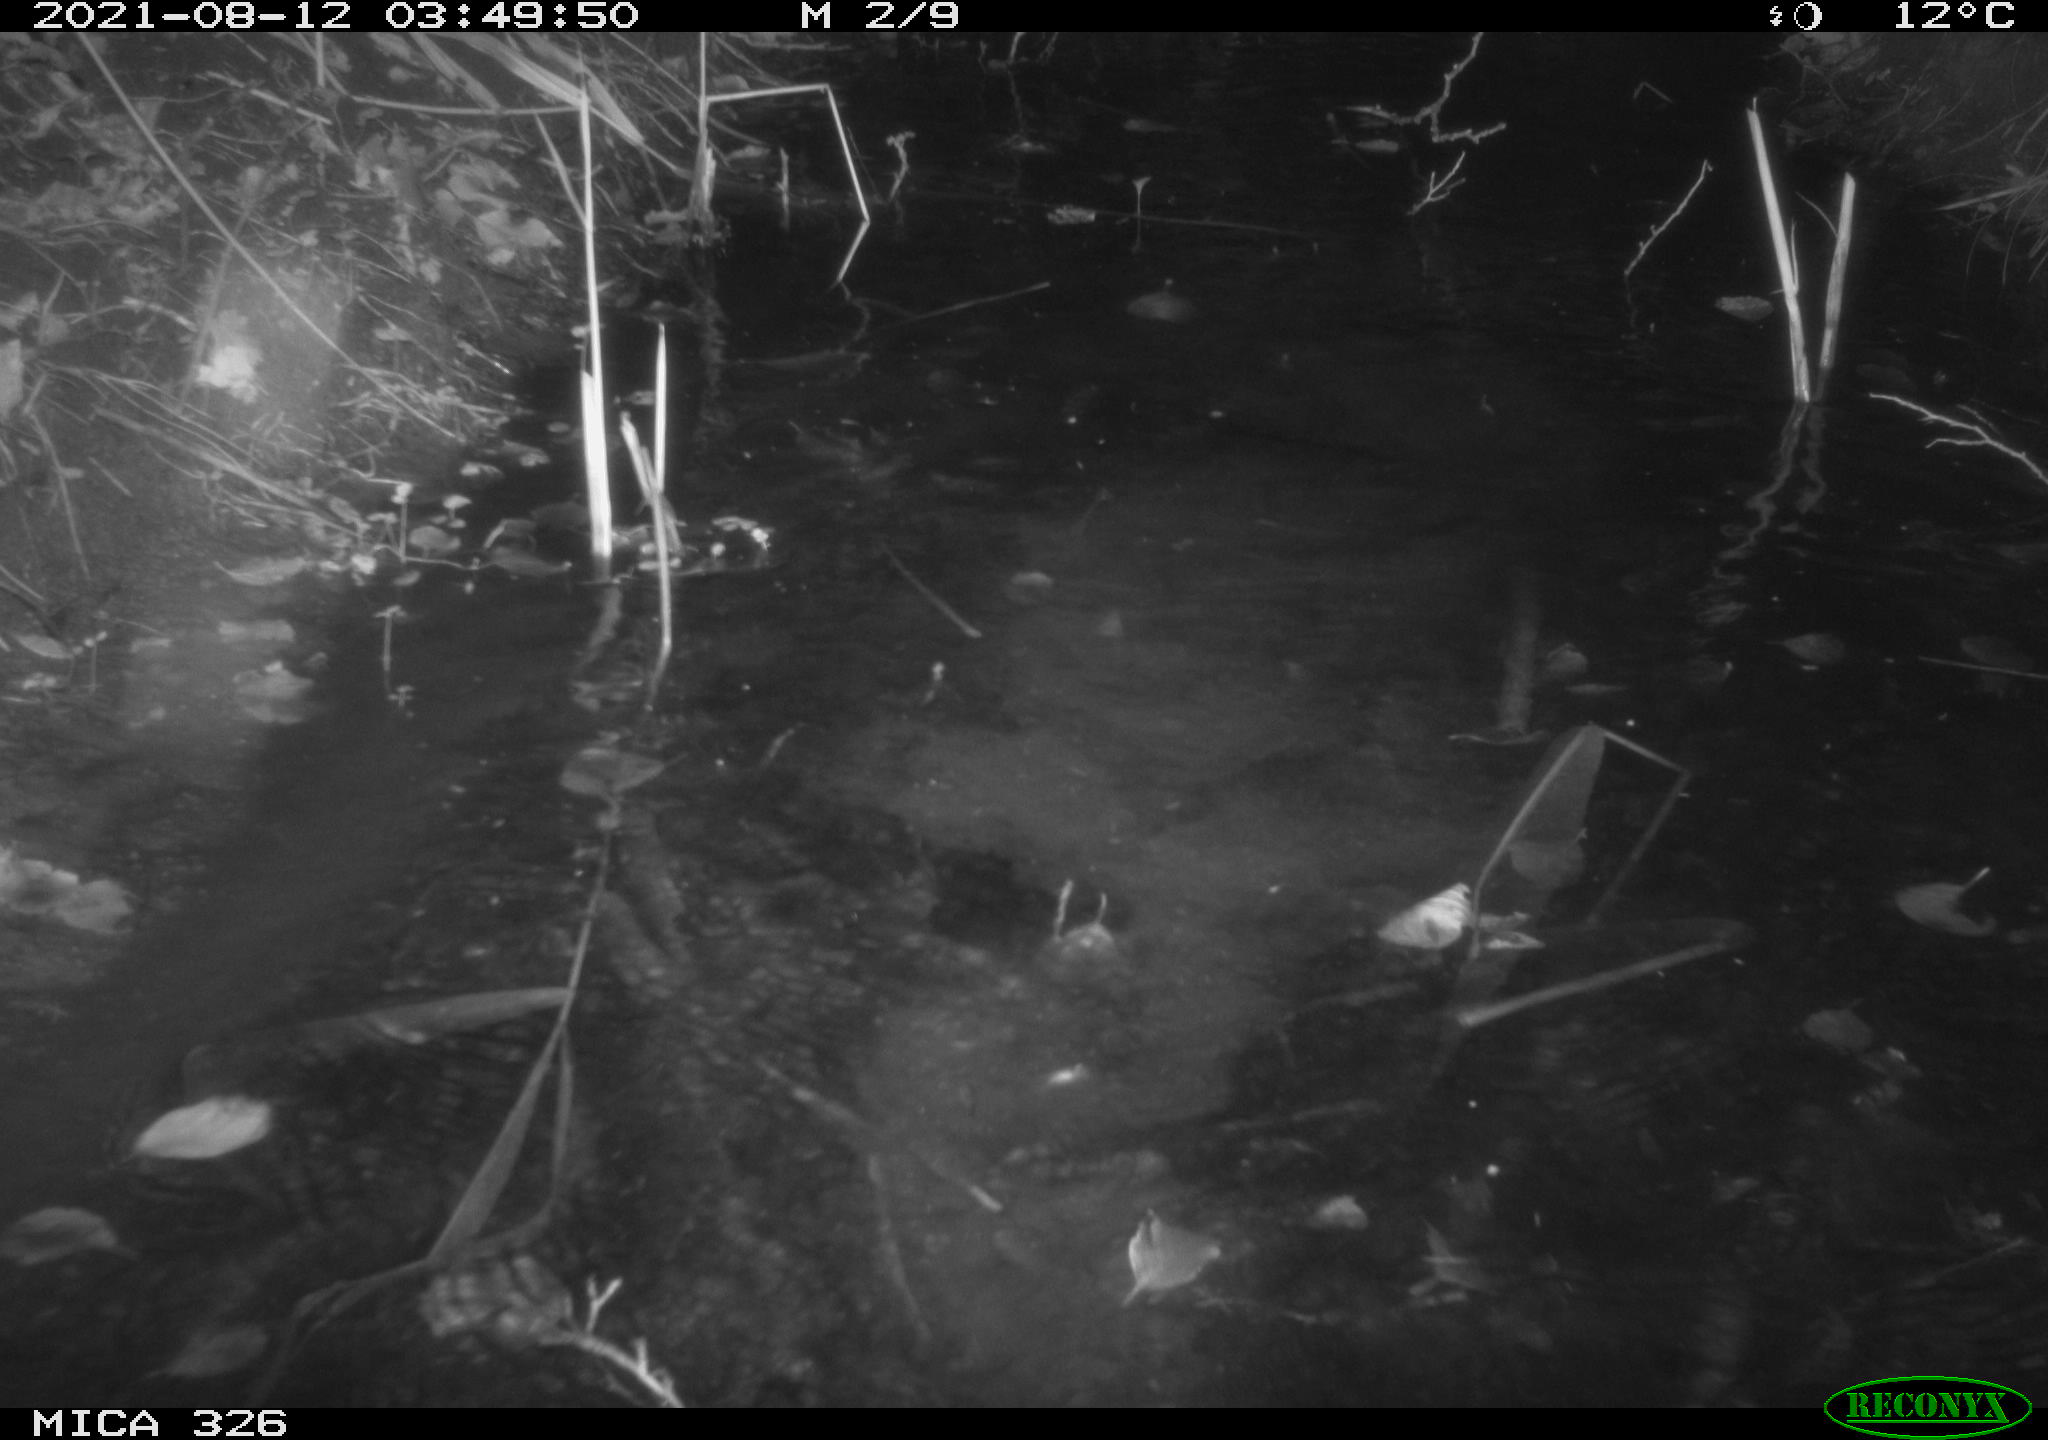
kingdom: Animalia
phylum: Chordata
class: Mammalia
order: Rodentia
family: Myocastoridae
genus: Myocastor
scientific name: Myocastor coypus
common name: Coypu
